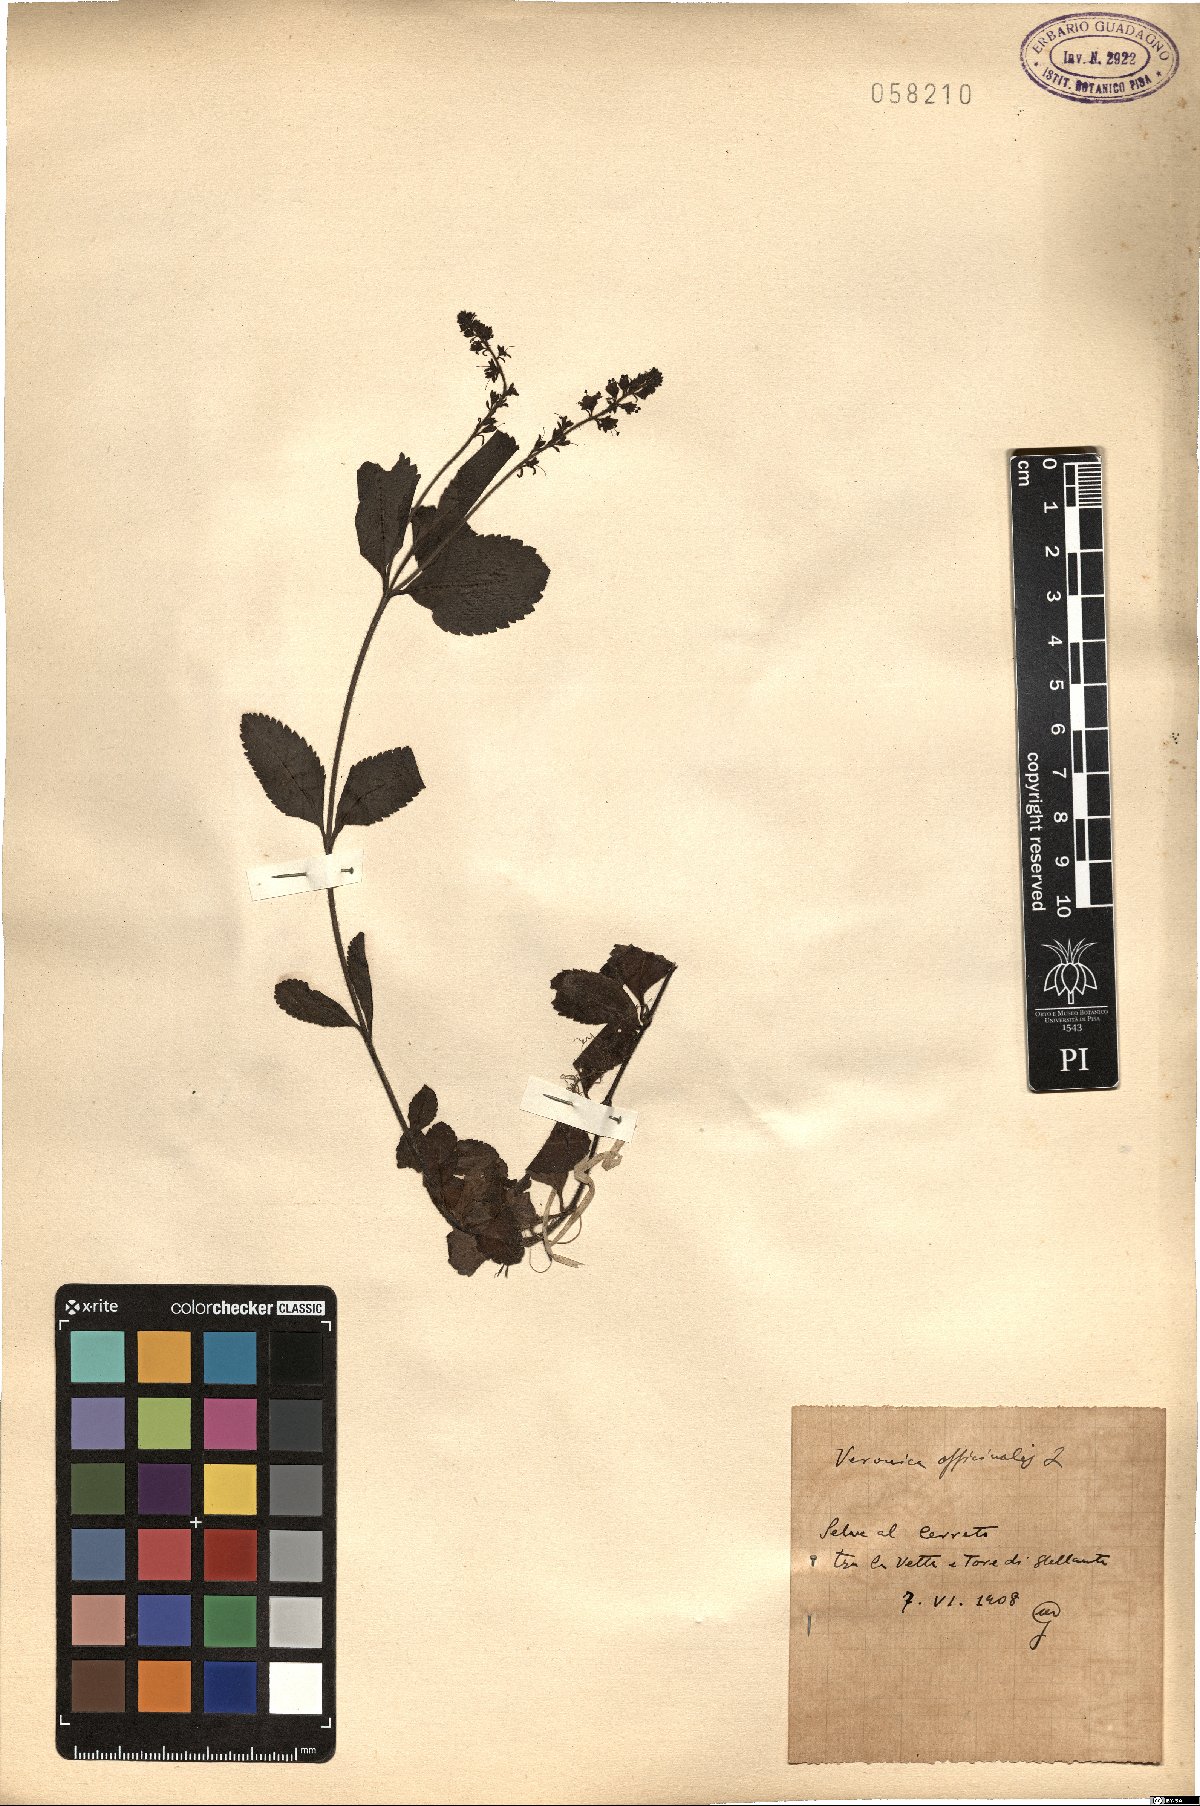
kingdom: Plantae
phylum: Tracheophyta
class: Magnoliopsida
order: Lamiales
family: Plantaginaceae
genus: Veronica
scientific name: Veronica officinalis
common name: Common speedwell
